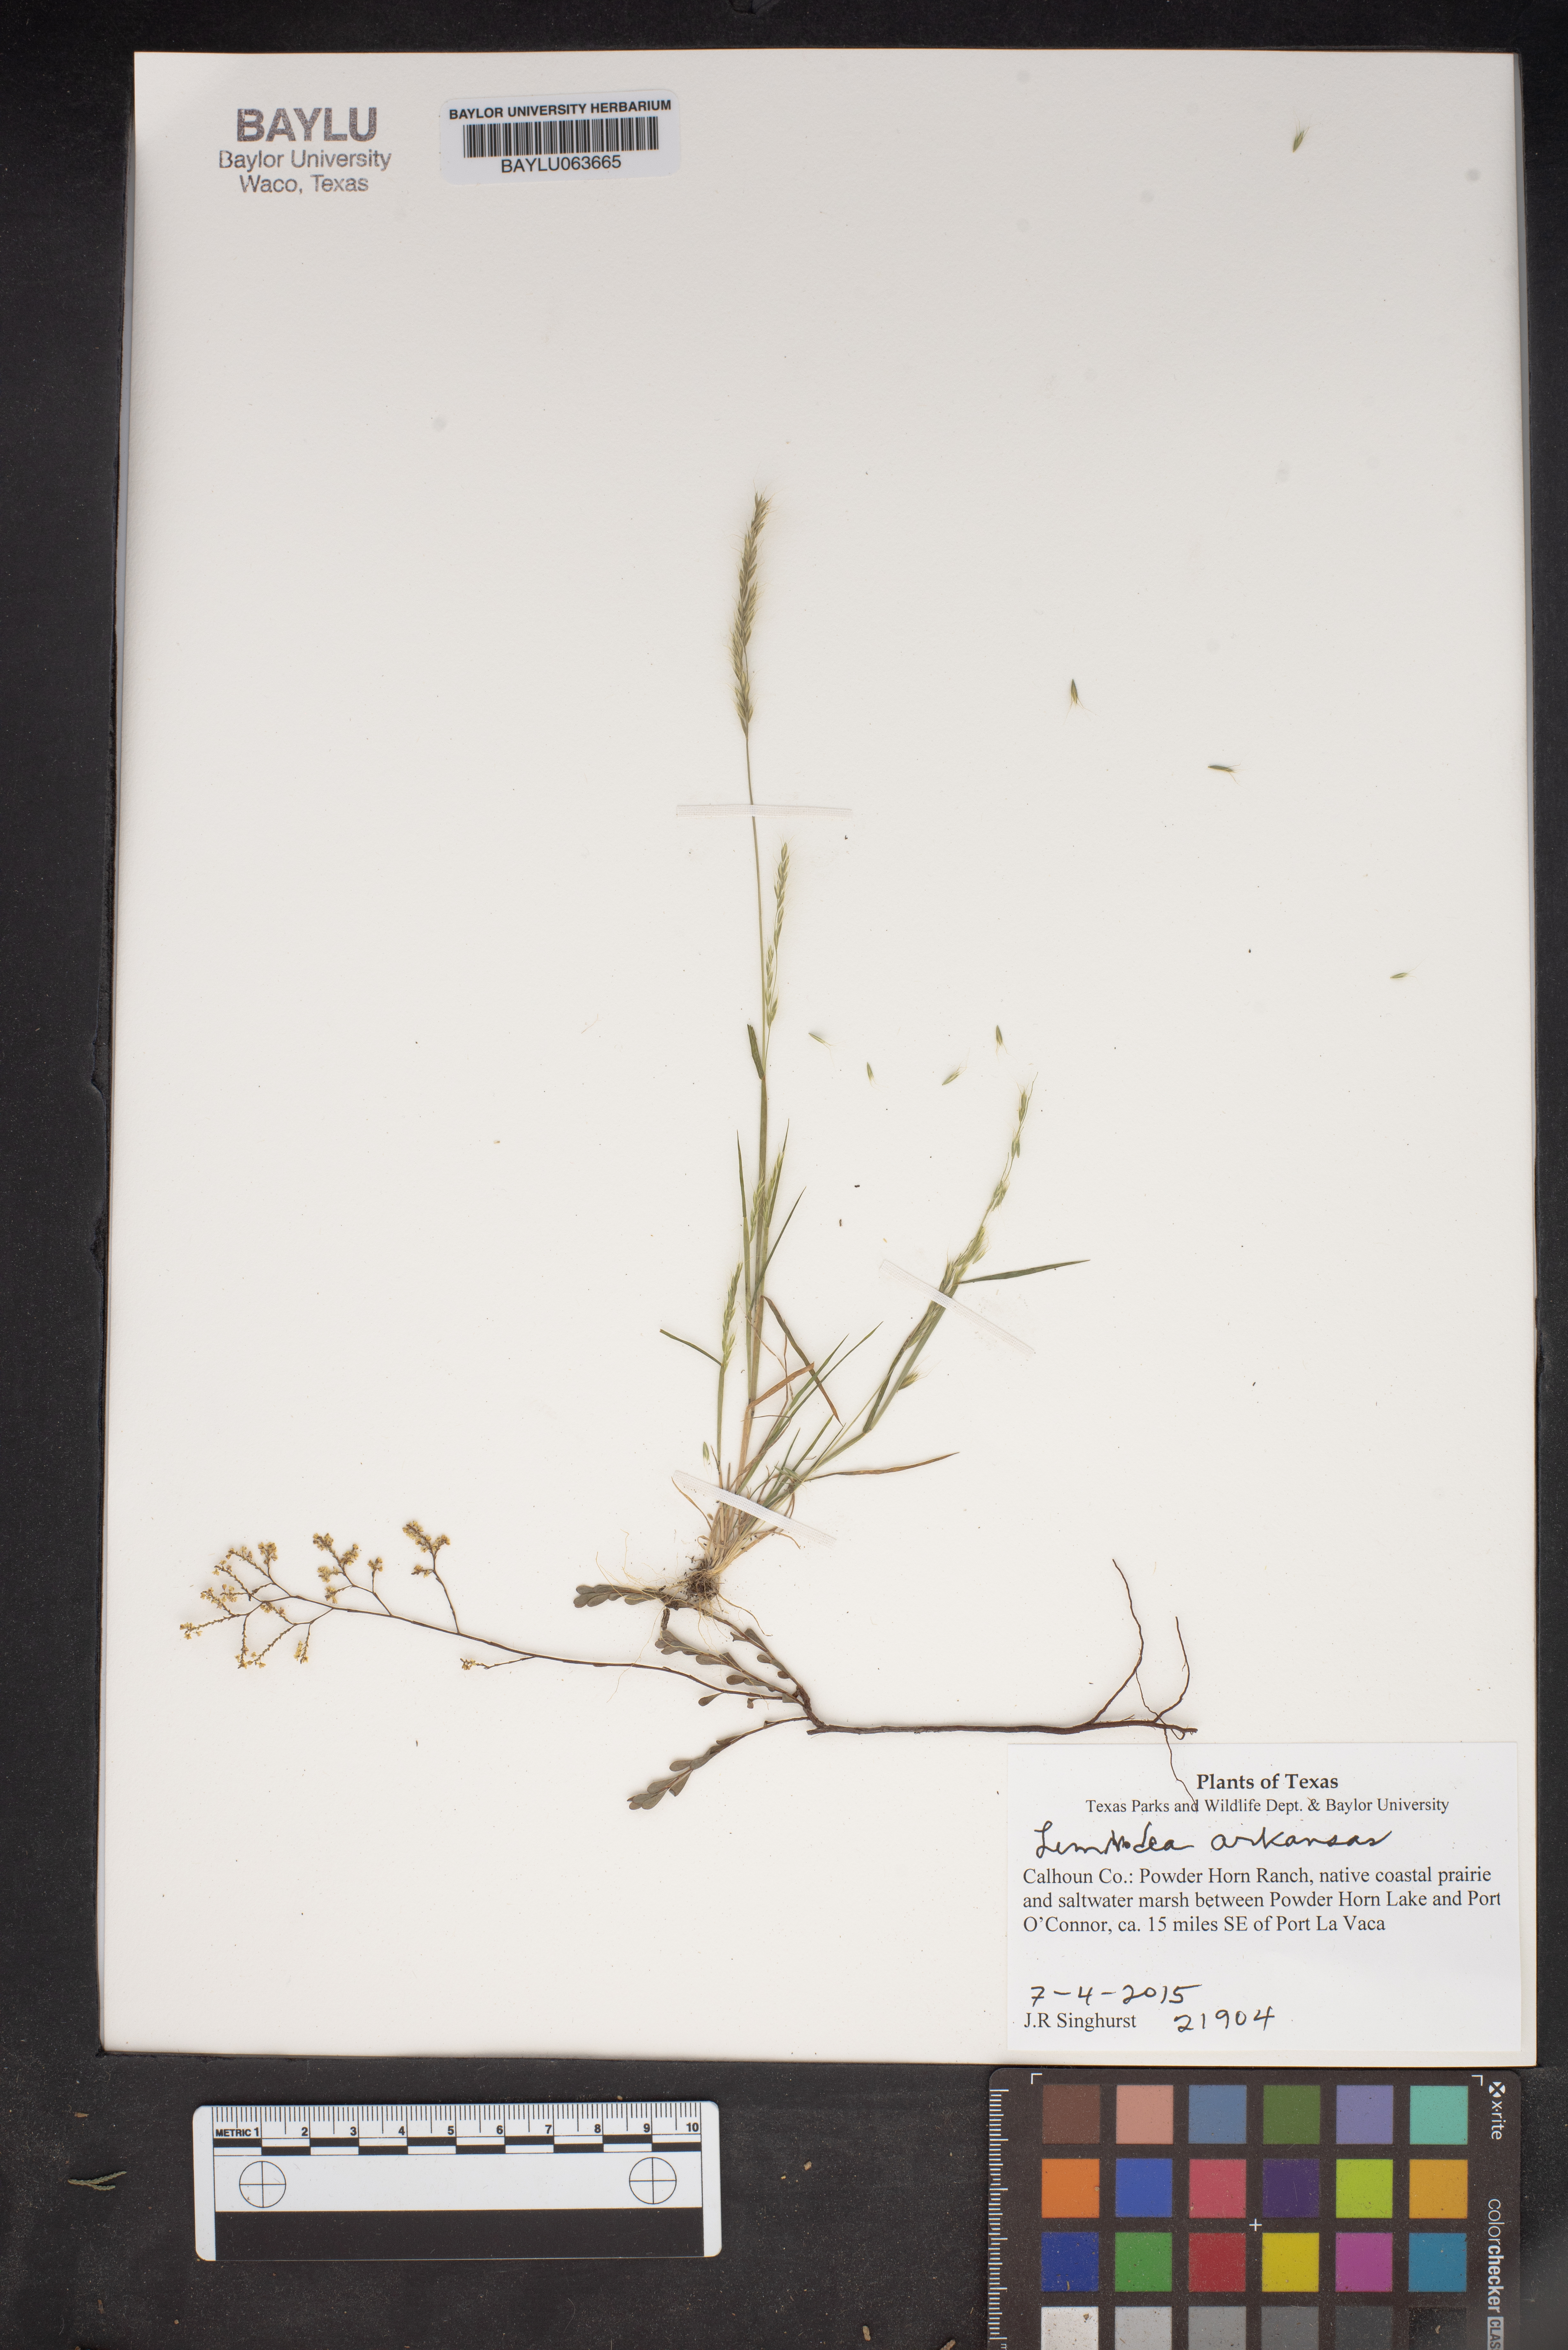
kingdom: Plantae
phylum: Tracheophyta
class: Liliopsida
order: Poales
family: Poaceae
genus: Limnodea
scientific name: Limnodea arkansana
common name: Ozark-grass
